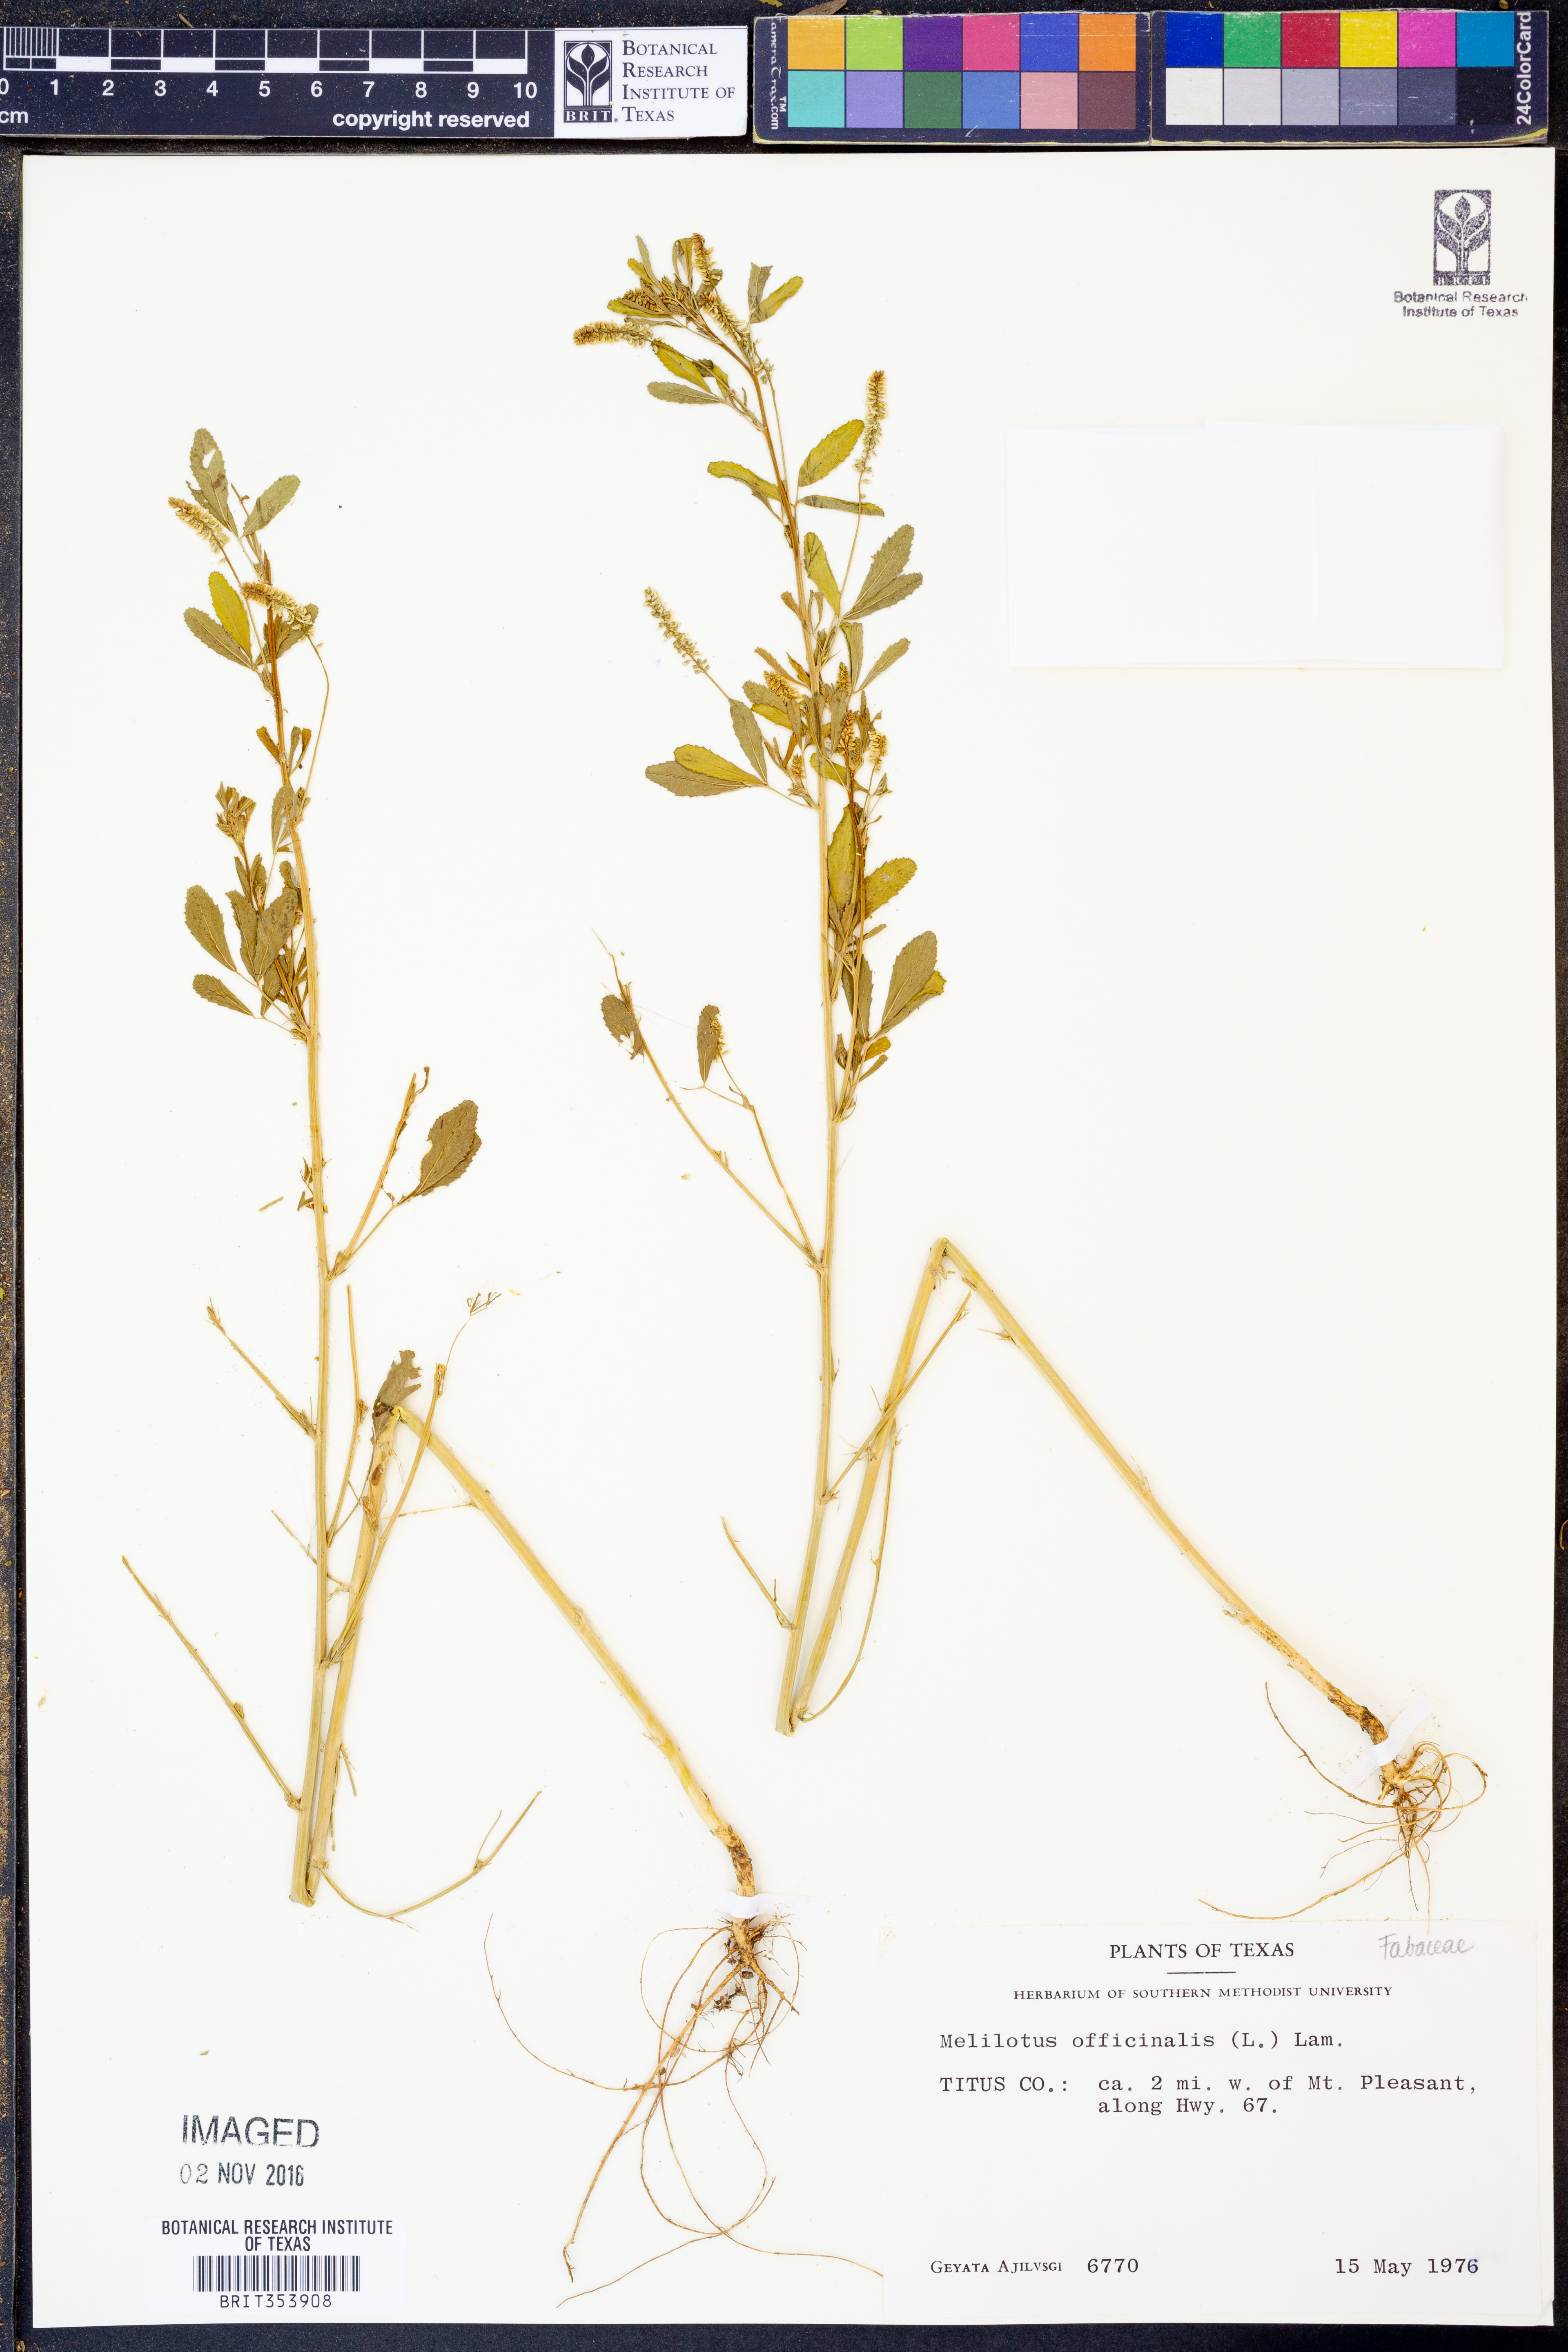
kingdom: Plantae
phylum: Tracheophyta
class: Magnoliopsida
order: Fabales
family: Fabaceae
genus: Melilotus
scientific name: Melilotus officinalis
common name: Sweetclover
